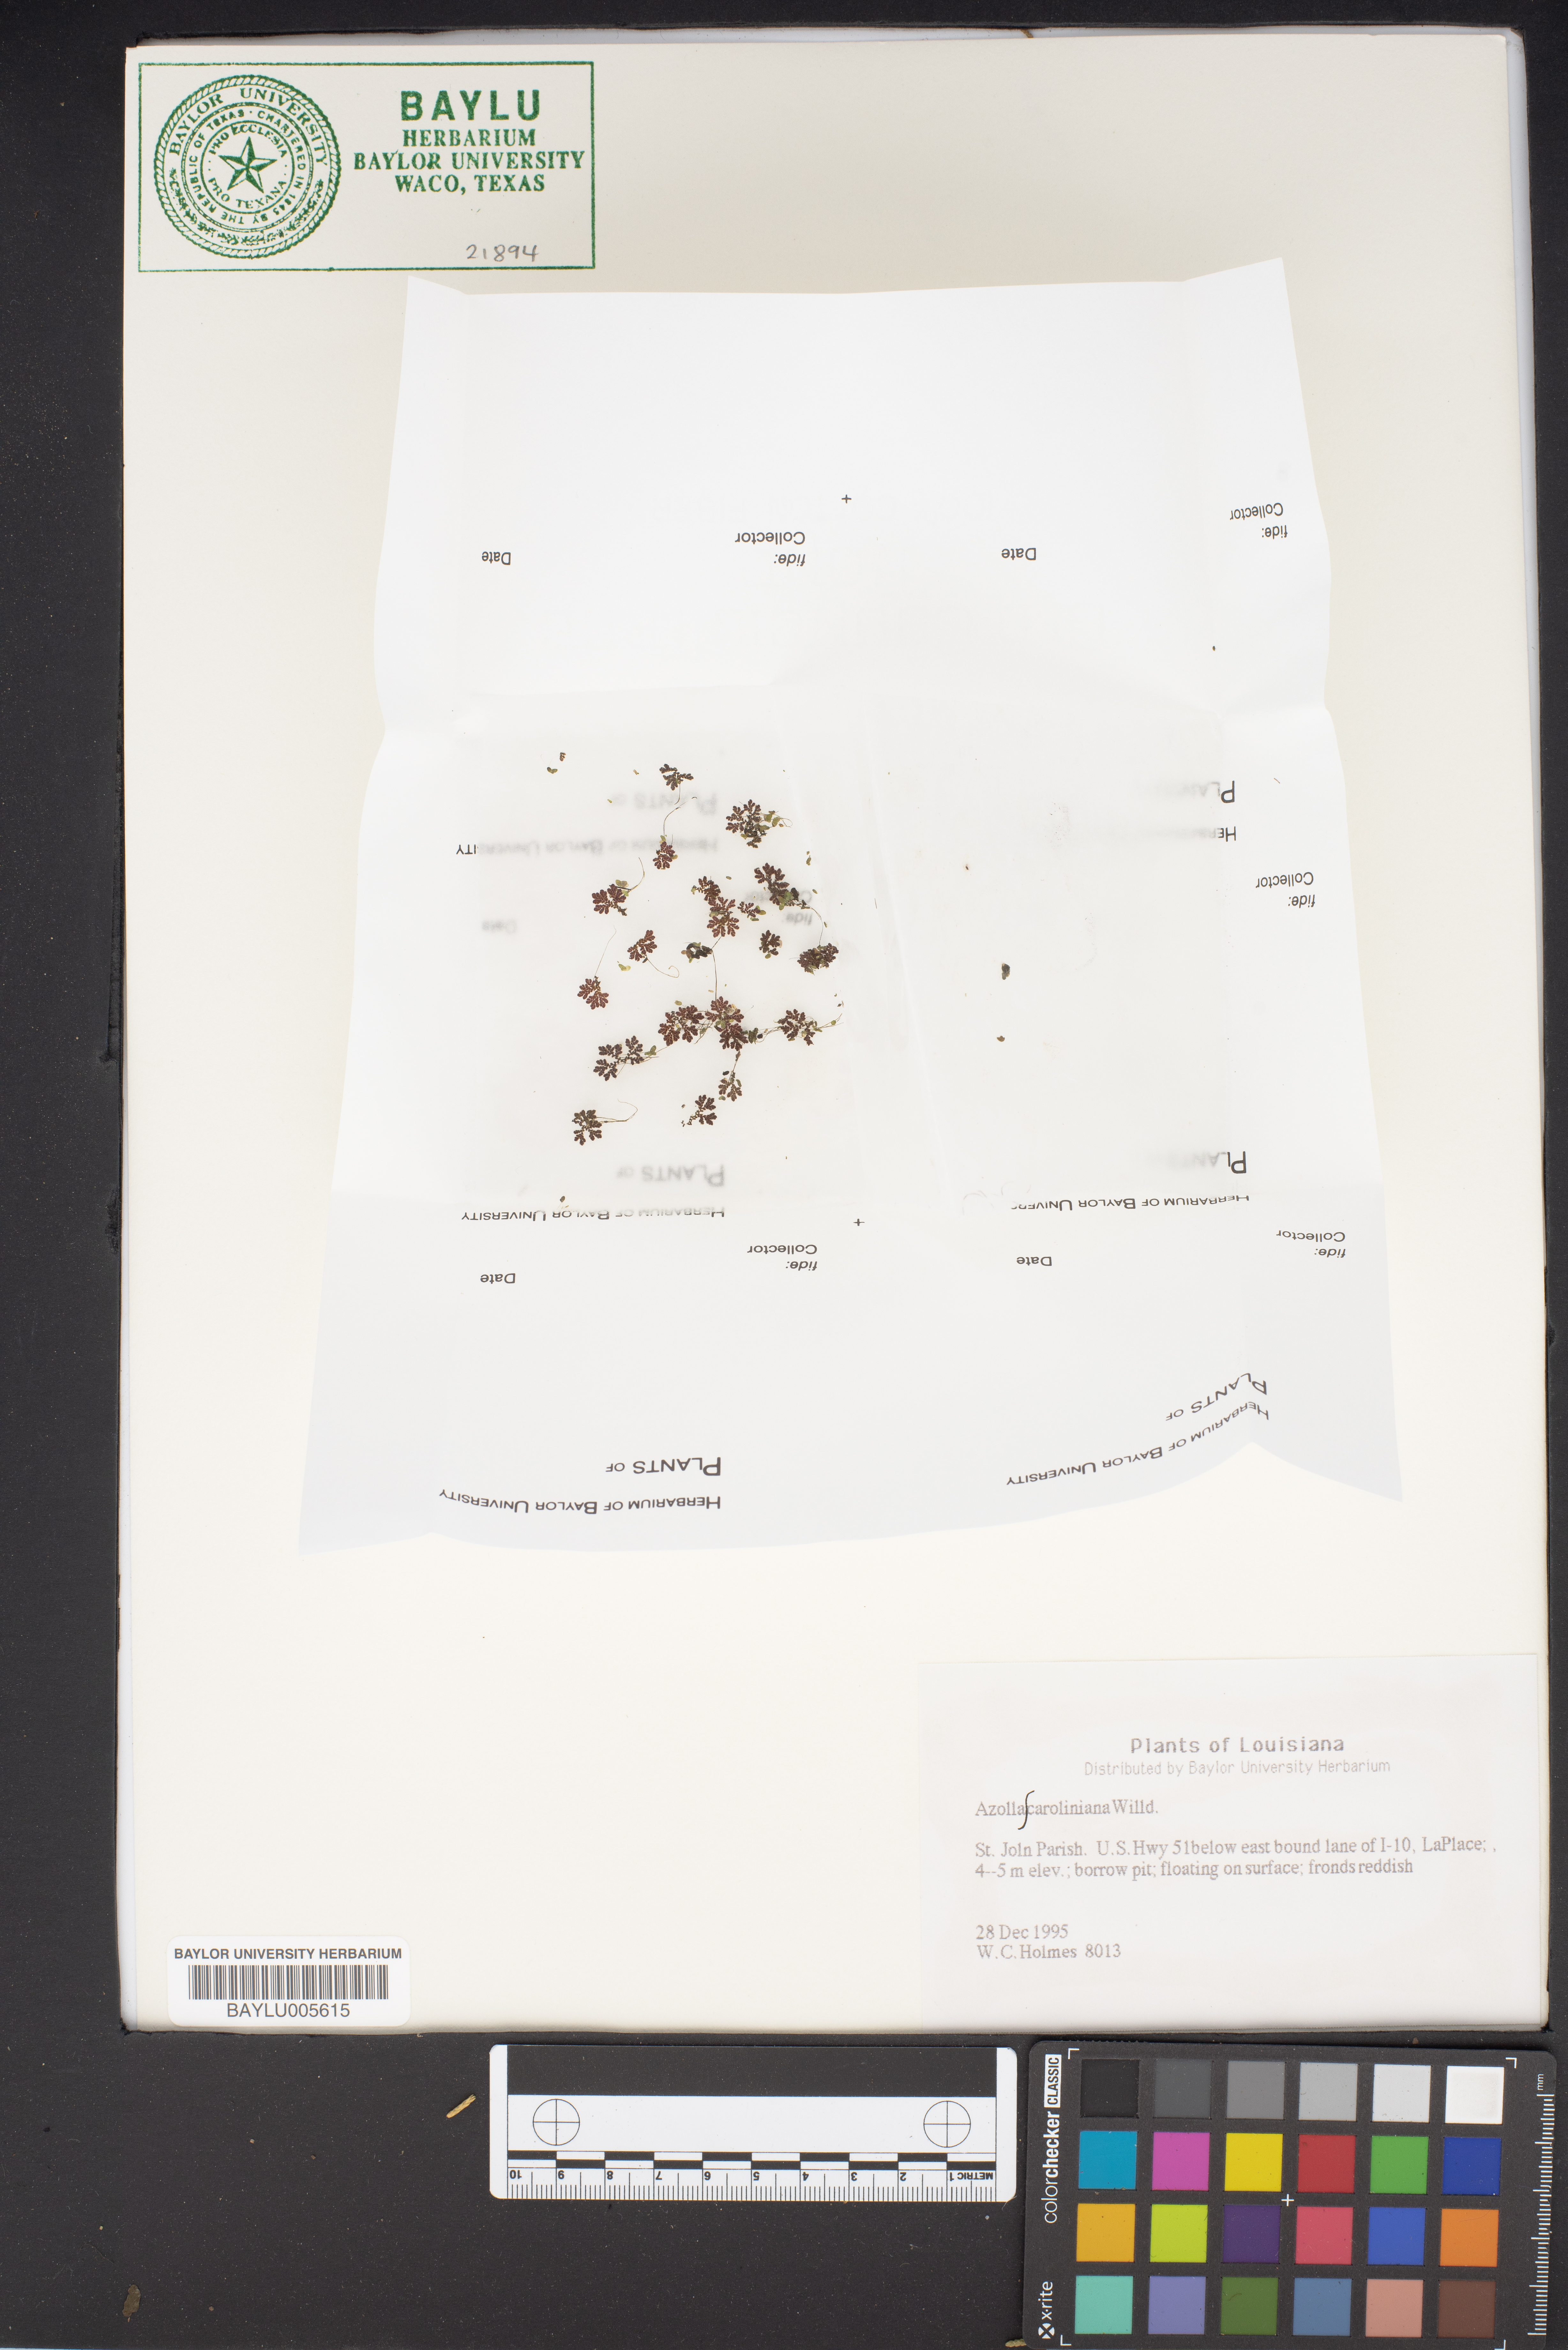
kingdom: Plantae
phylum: Tracheophyta
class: Polypodiopsida
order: Salviniales
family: Salviniaceae
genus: Azolla
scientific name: Azolla caroliniana
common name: Carolina mosquitofern
